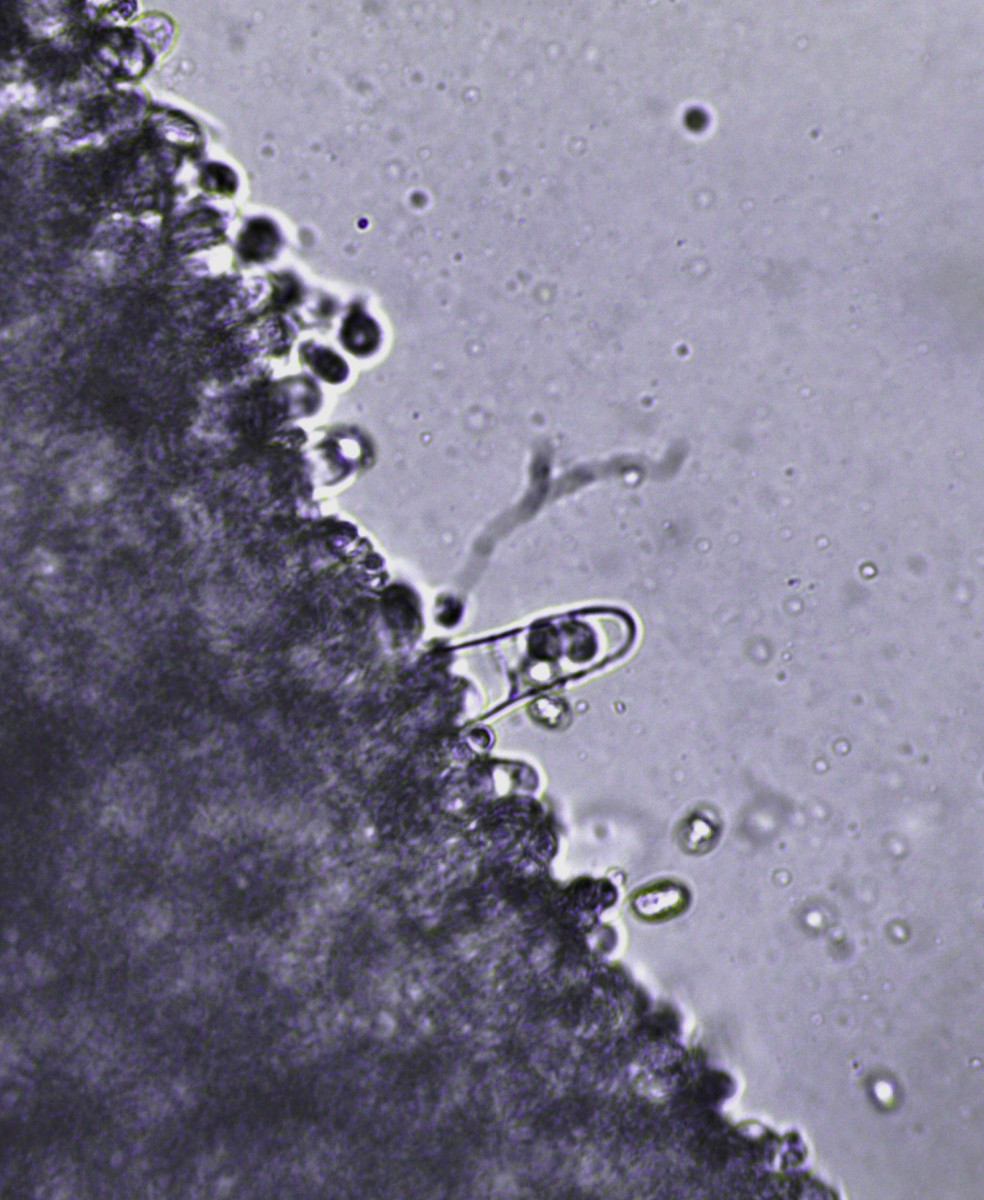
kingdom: Fungi
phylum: Basidiomycota
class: Agaricomycetes
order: Agaricales
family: Tricholomataceae
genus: Gamundia
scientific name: Gamundia striatula
